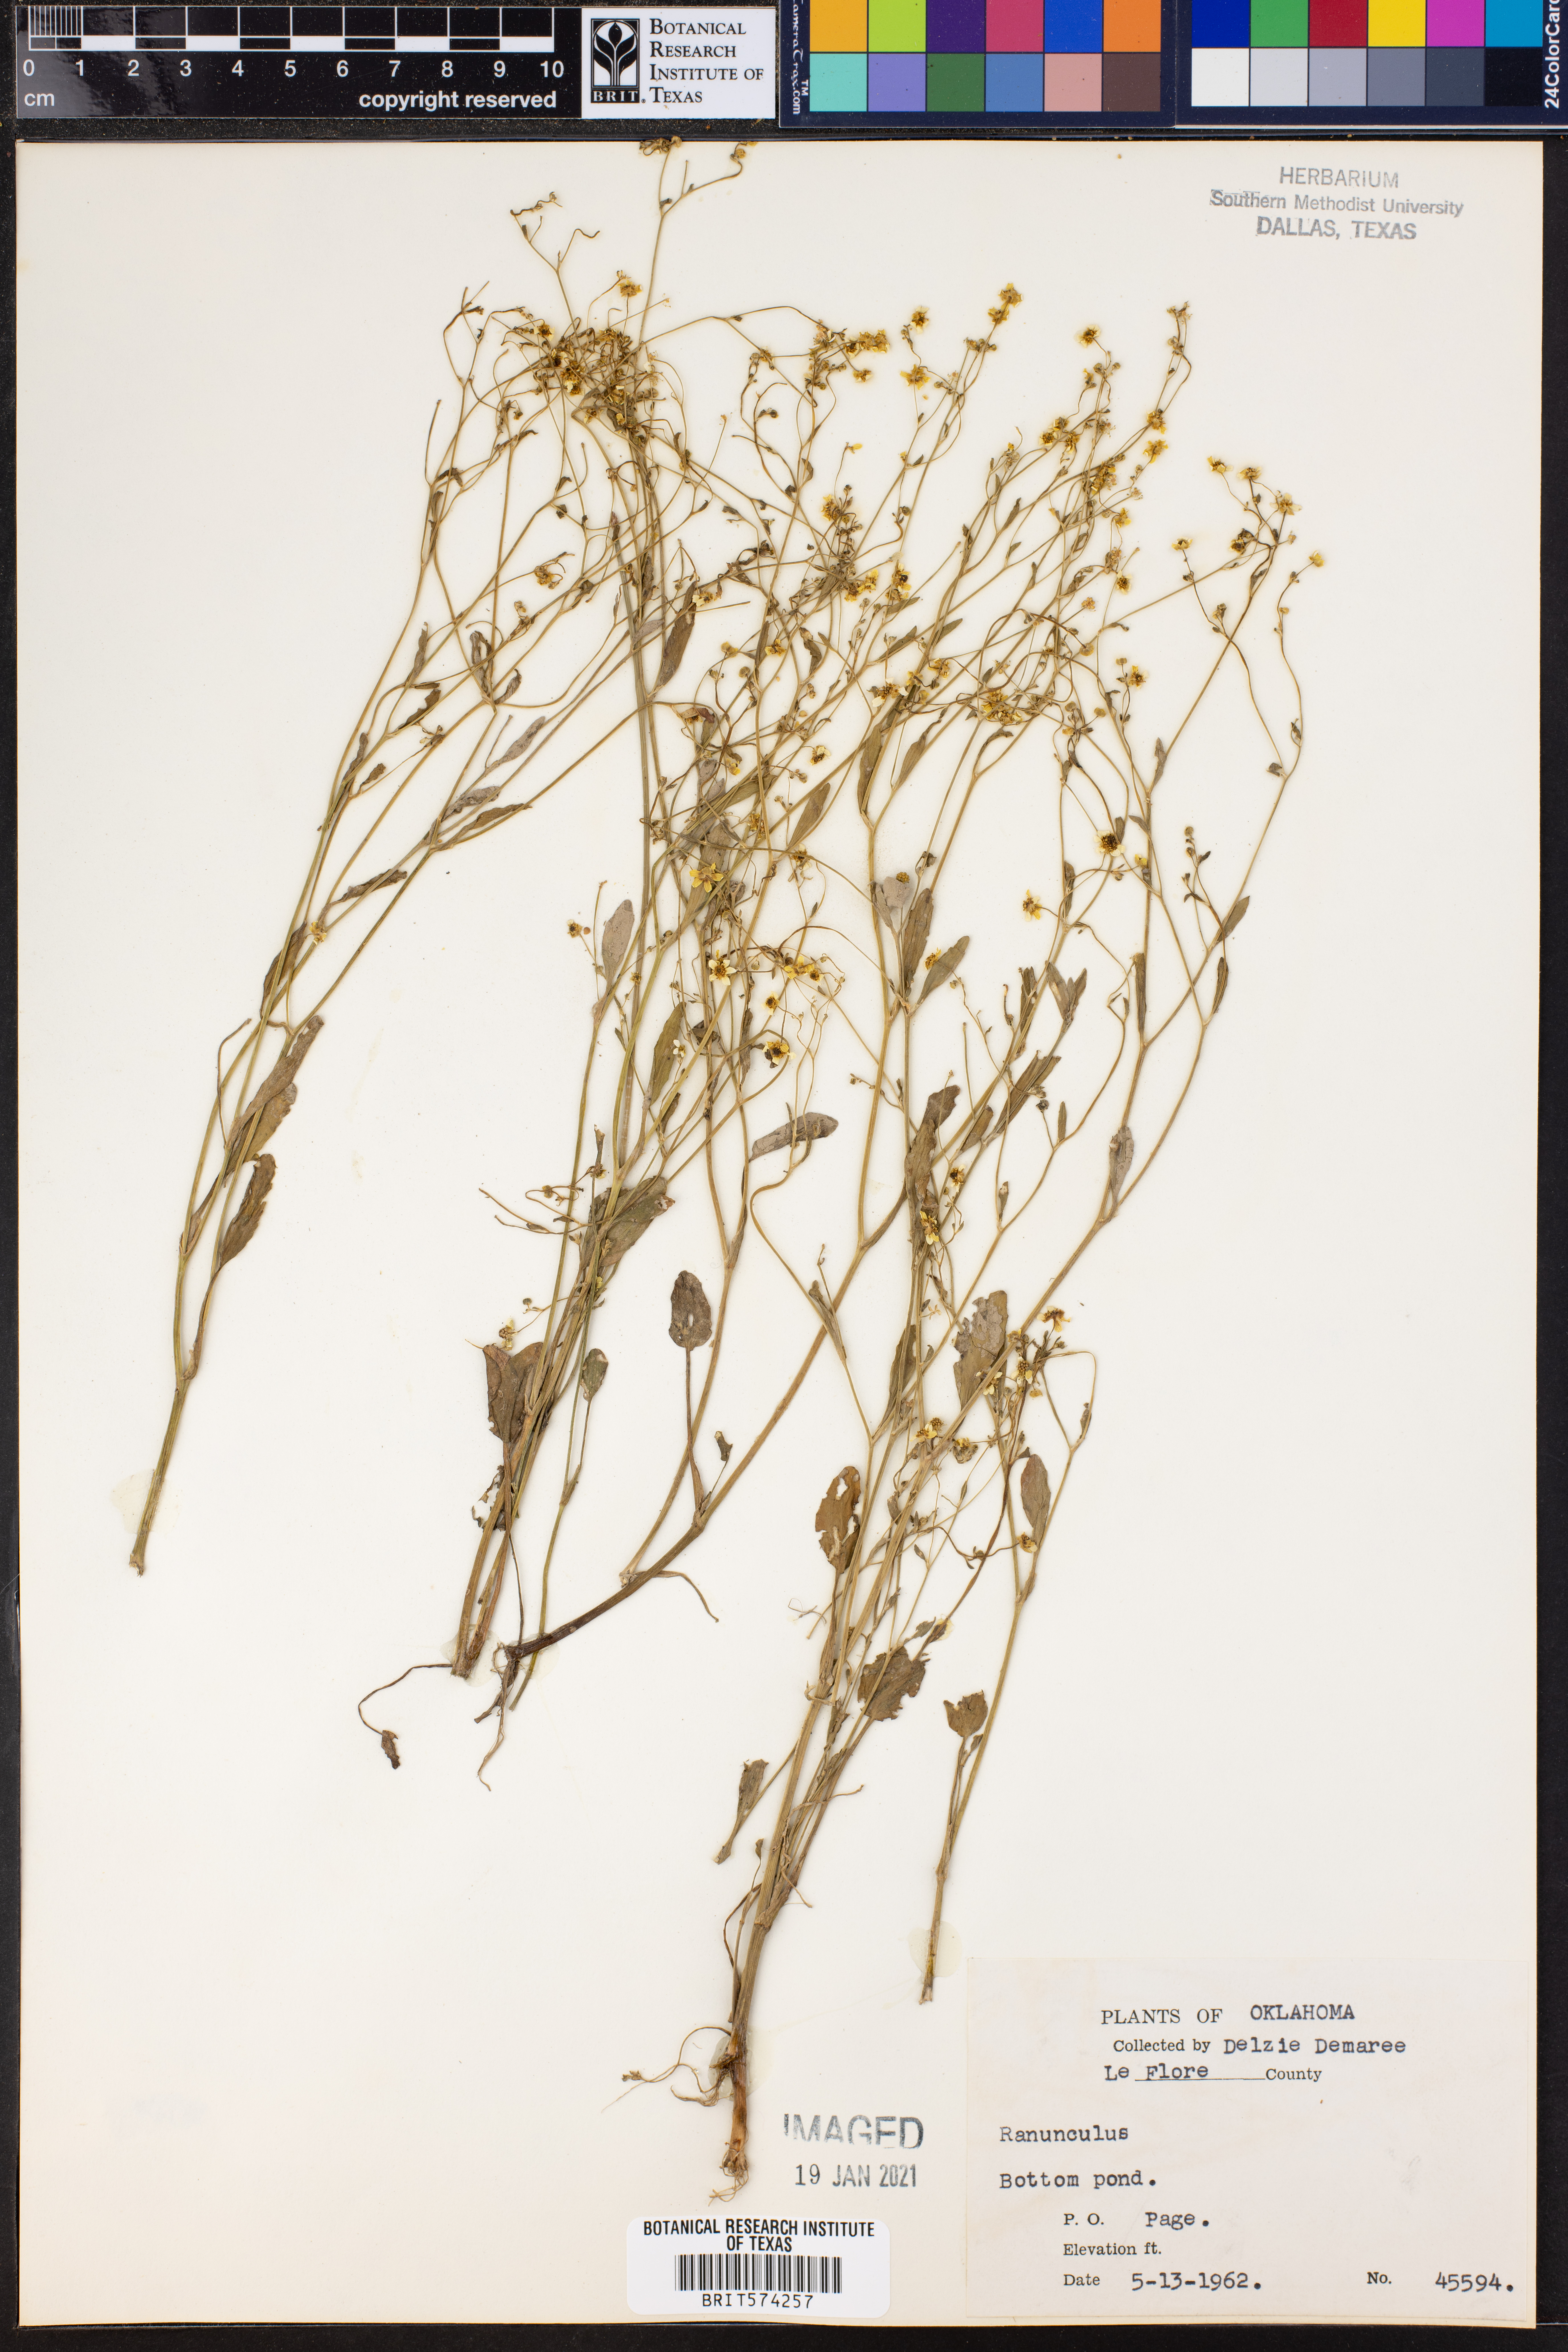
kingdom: Plantae
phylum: Tracheophyta
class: Magnoliopsida
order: Ranunculales
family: Ranunculaceae
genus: Ranunculus
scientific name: Ranunculus
